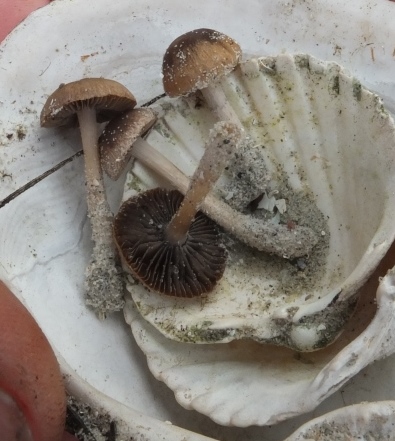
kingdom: Fungi
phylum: Basidiomycota
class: Agaricomycetes
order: Agaricales
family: Psathyrellaceae
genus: Psathyrella
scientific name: Psathyrella ammophila
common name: klit-mørkhat
